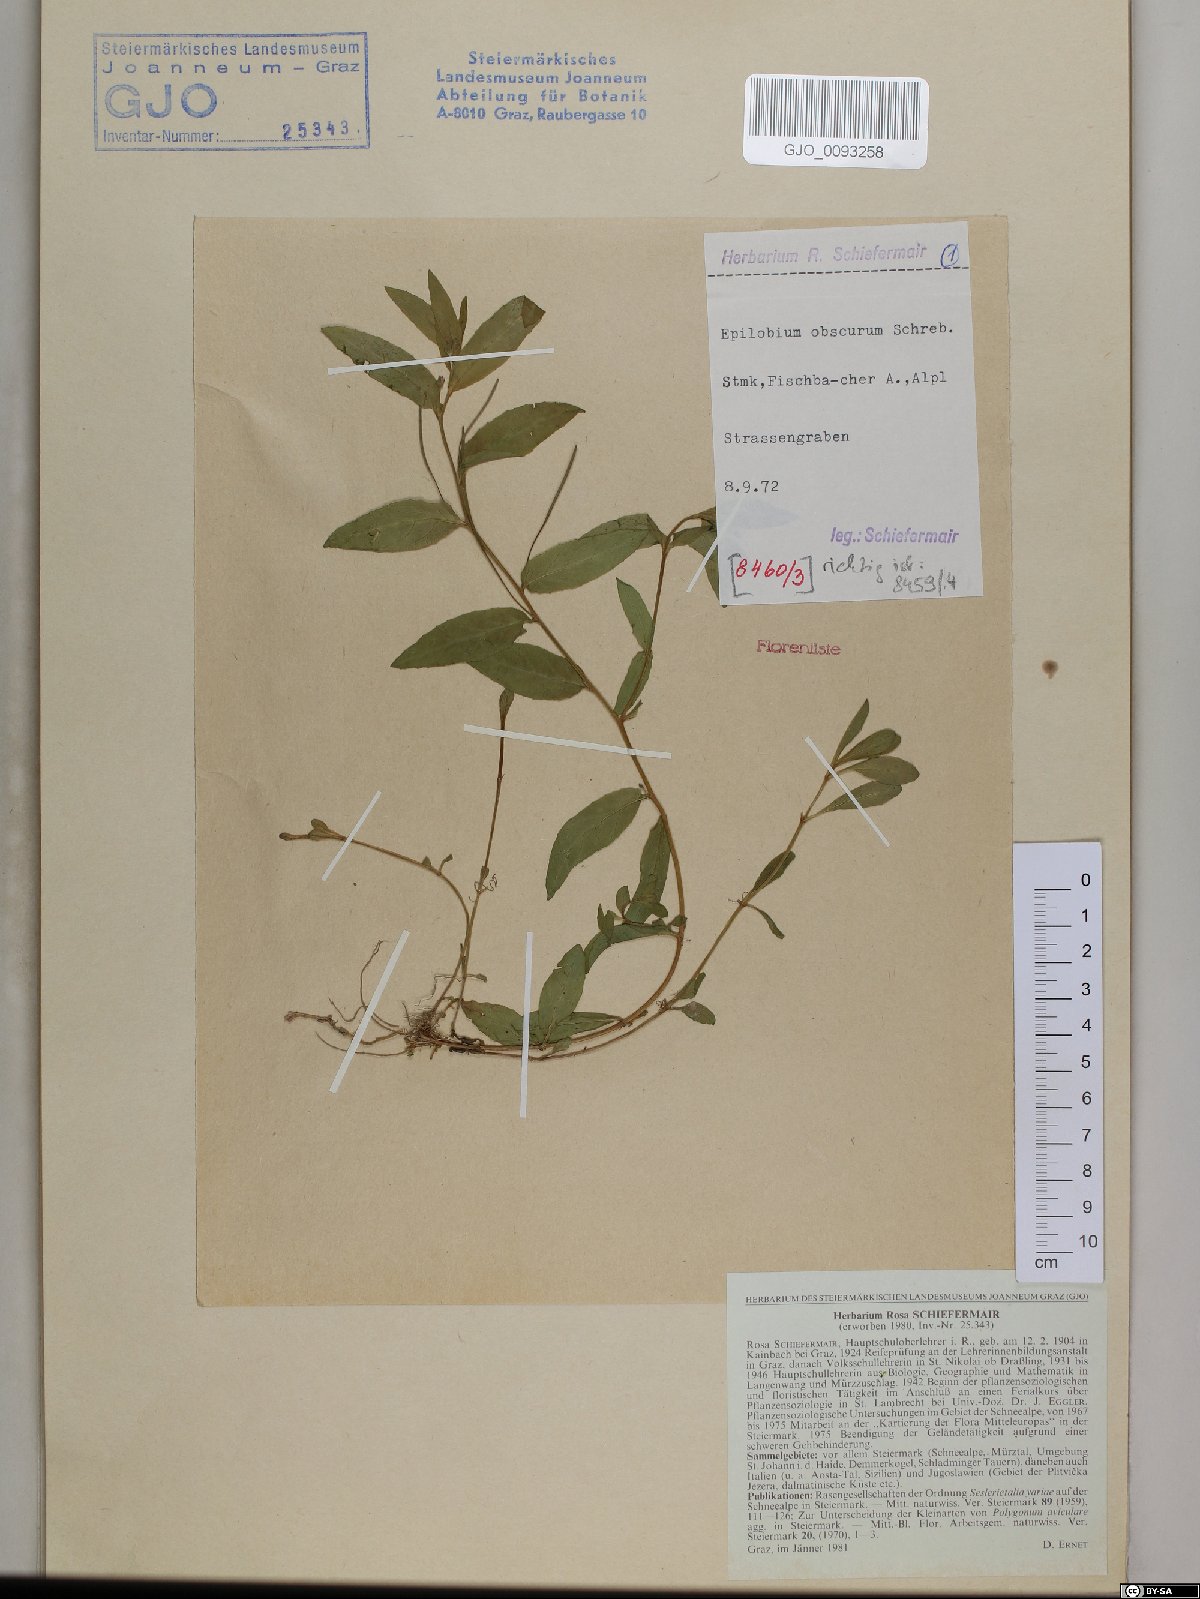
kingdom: Plantae
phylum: Tracheophyta
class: Magnoliopsida
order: Myrtales
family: Onagraceae
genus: Epilobium
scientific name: Epilobium obscurum
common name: Short-fruited willowherb
